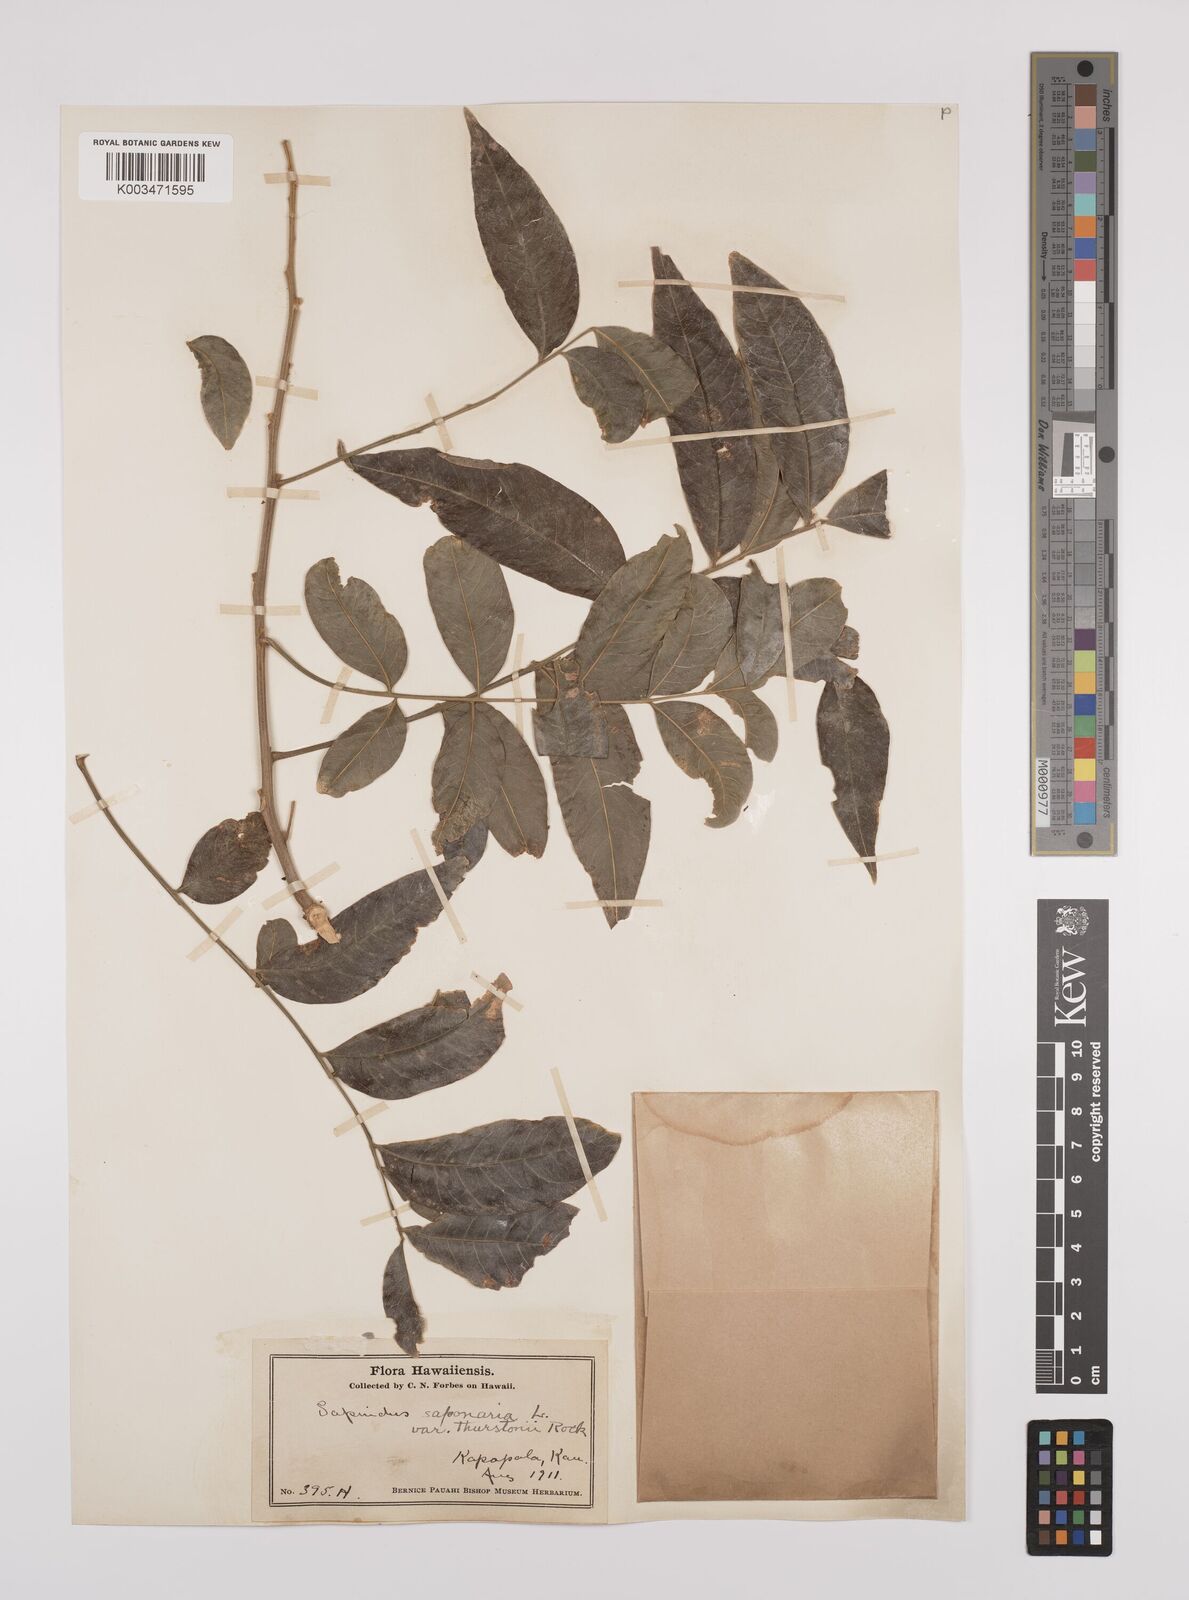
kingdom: Plantae
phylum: Tracheophyta
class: Magnoliopsida
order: Sapindales
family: Sapindaceae
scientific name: Sapindaceae
